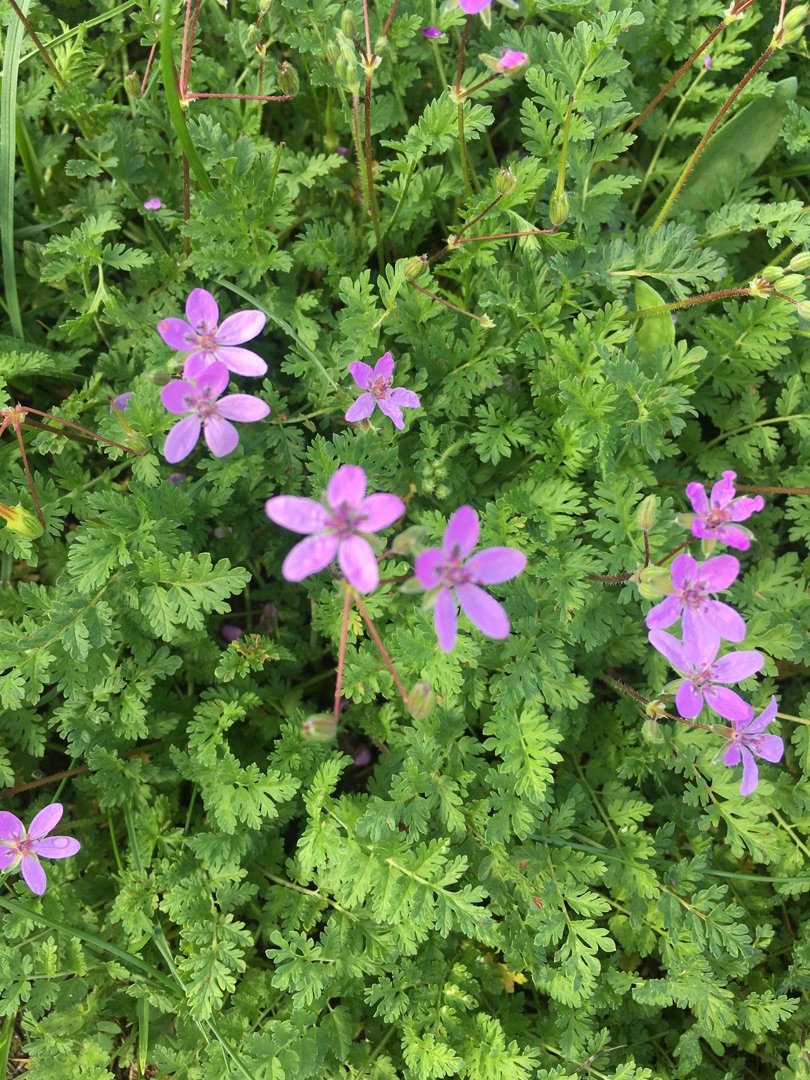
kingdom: Plantae
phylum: Tracheophyta
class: Magnoliopsida
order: Geraniales
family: Geraniaceae
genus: Erodium
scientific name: Erodium cicutarium
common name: Hejrenæb
